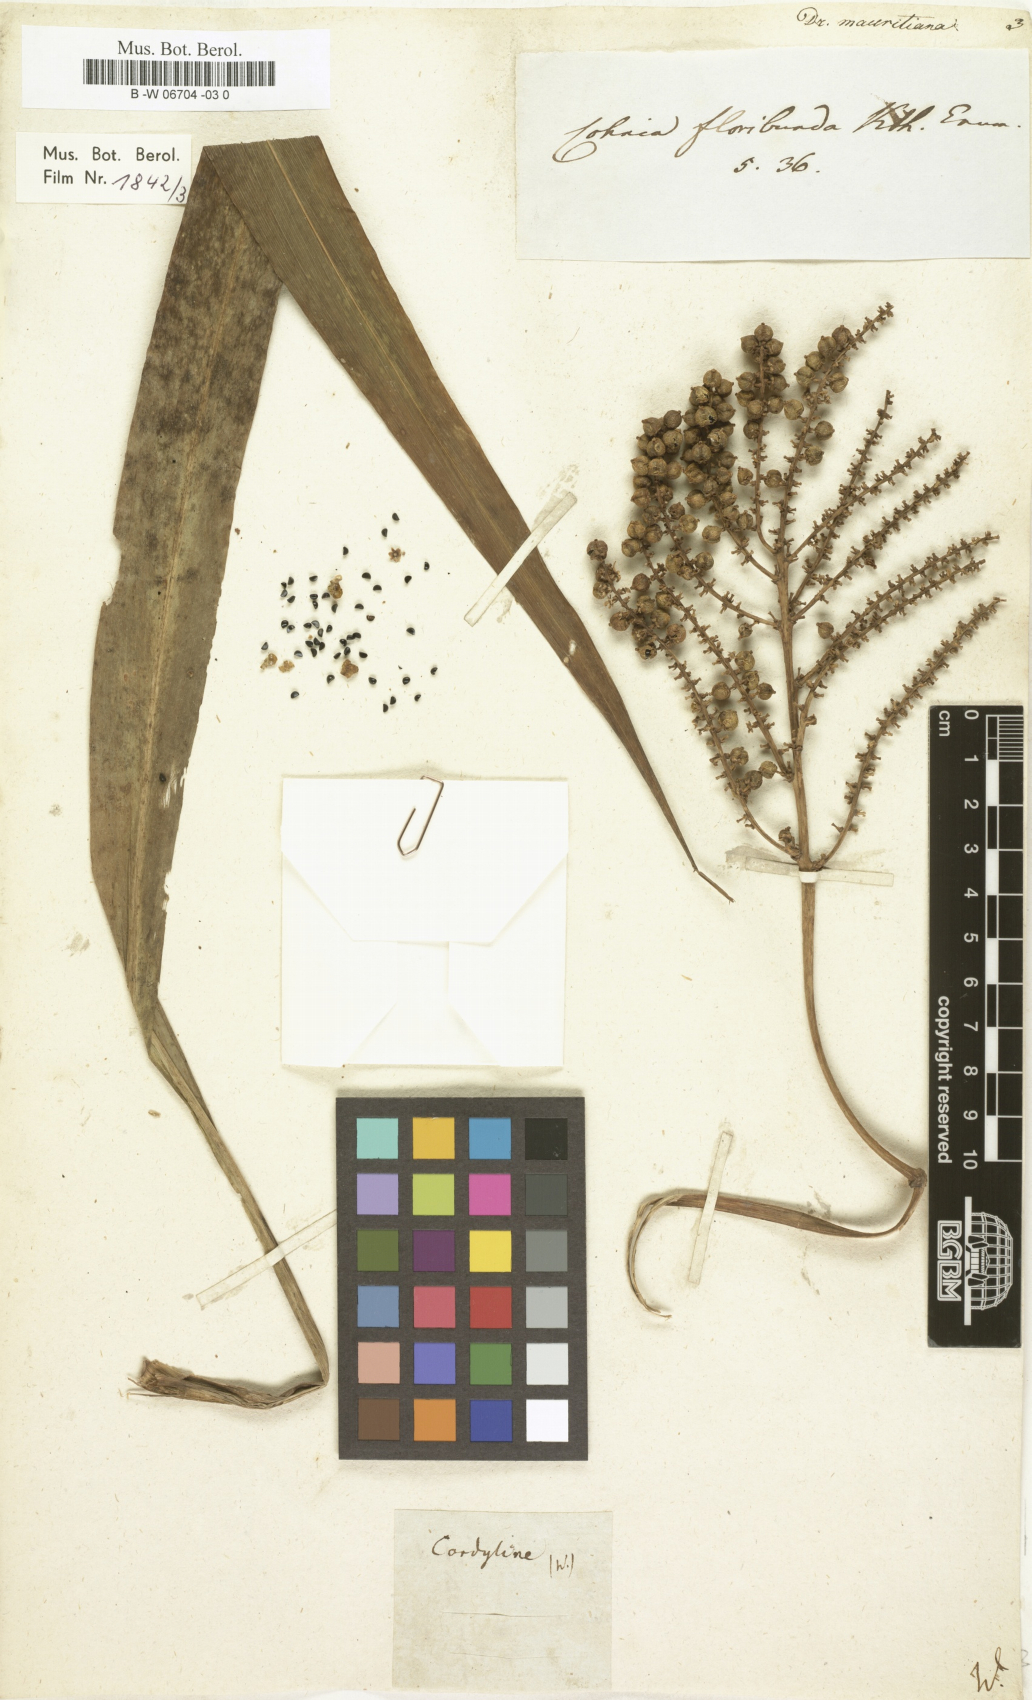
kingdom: Plantae
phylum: Tracheophyta
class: Liliopsida
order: Asparagales
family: Asparagaceae
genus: Dracaena
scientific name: Dracaena mauritiana
